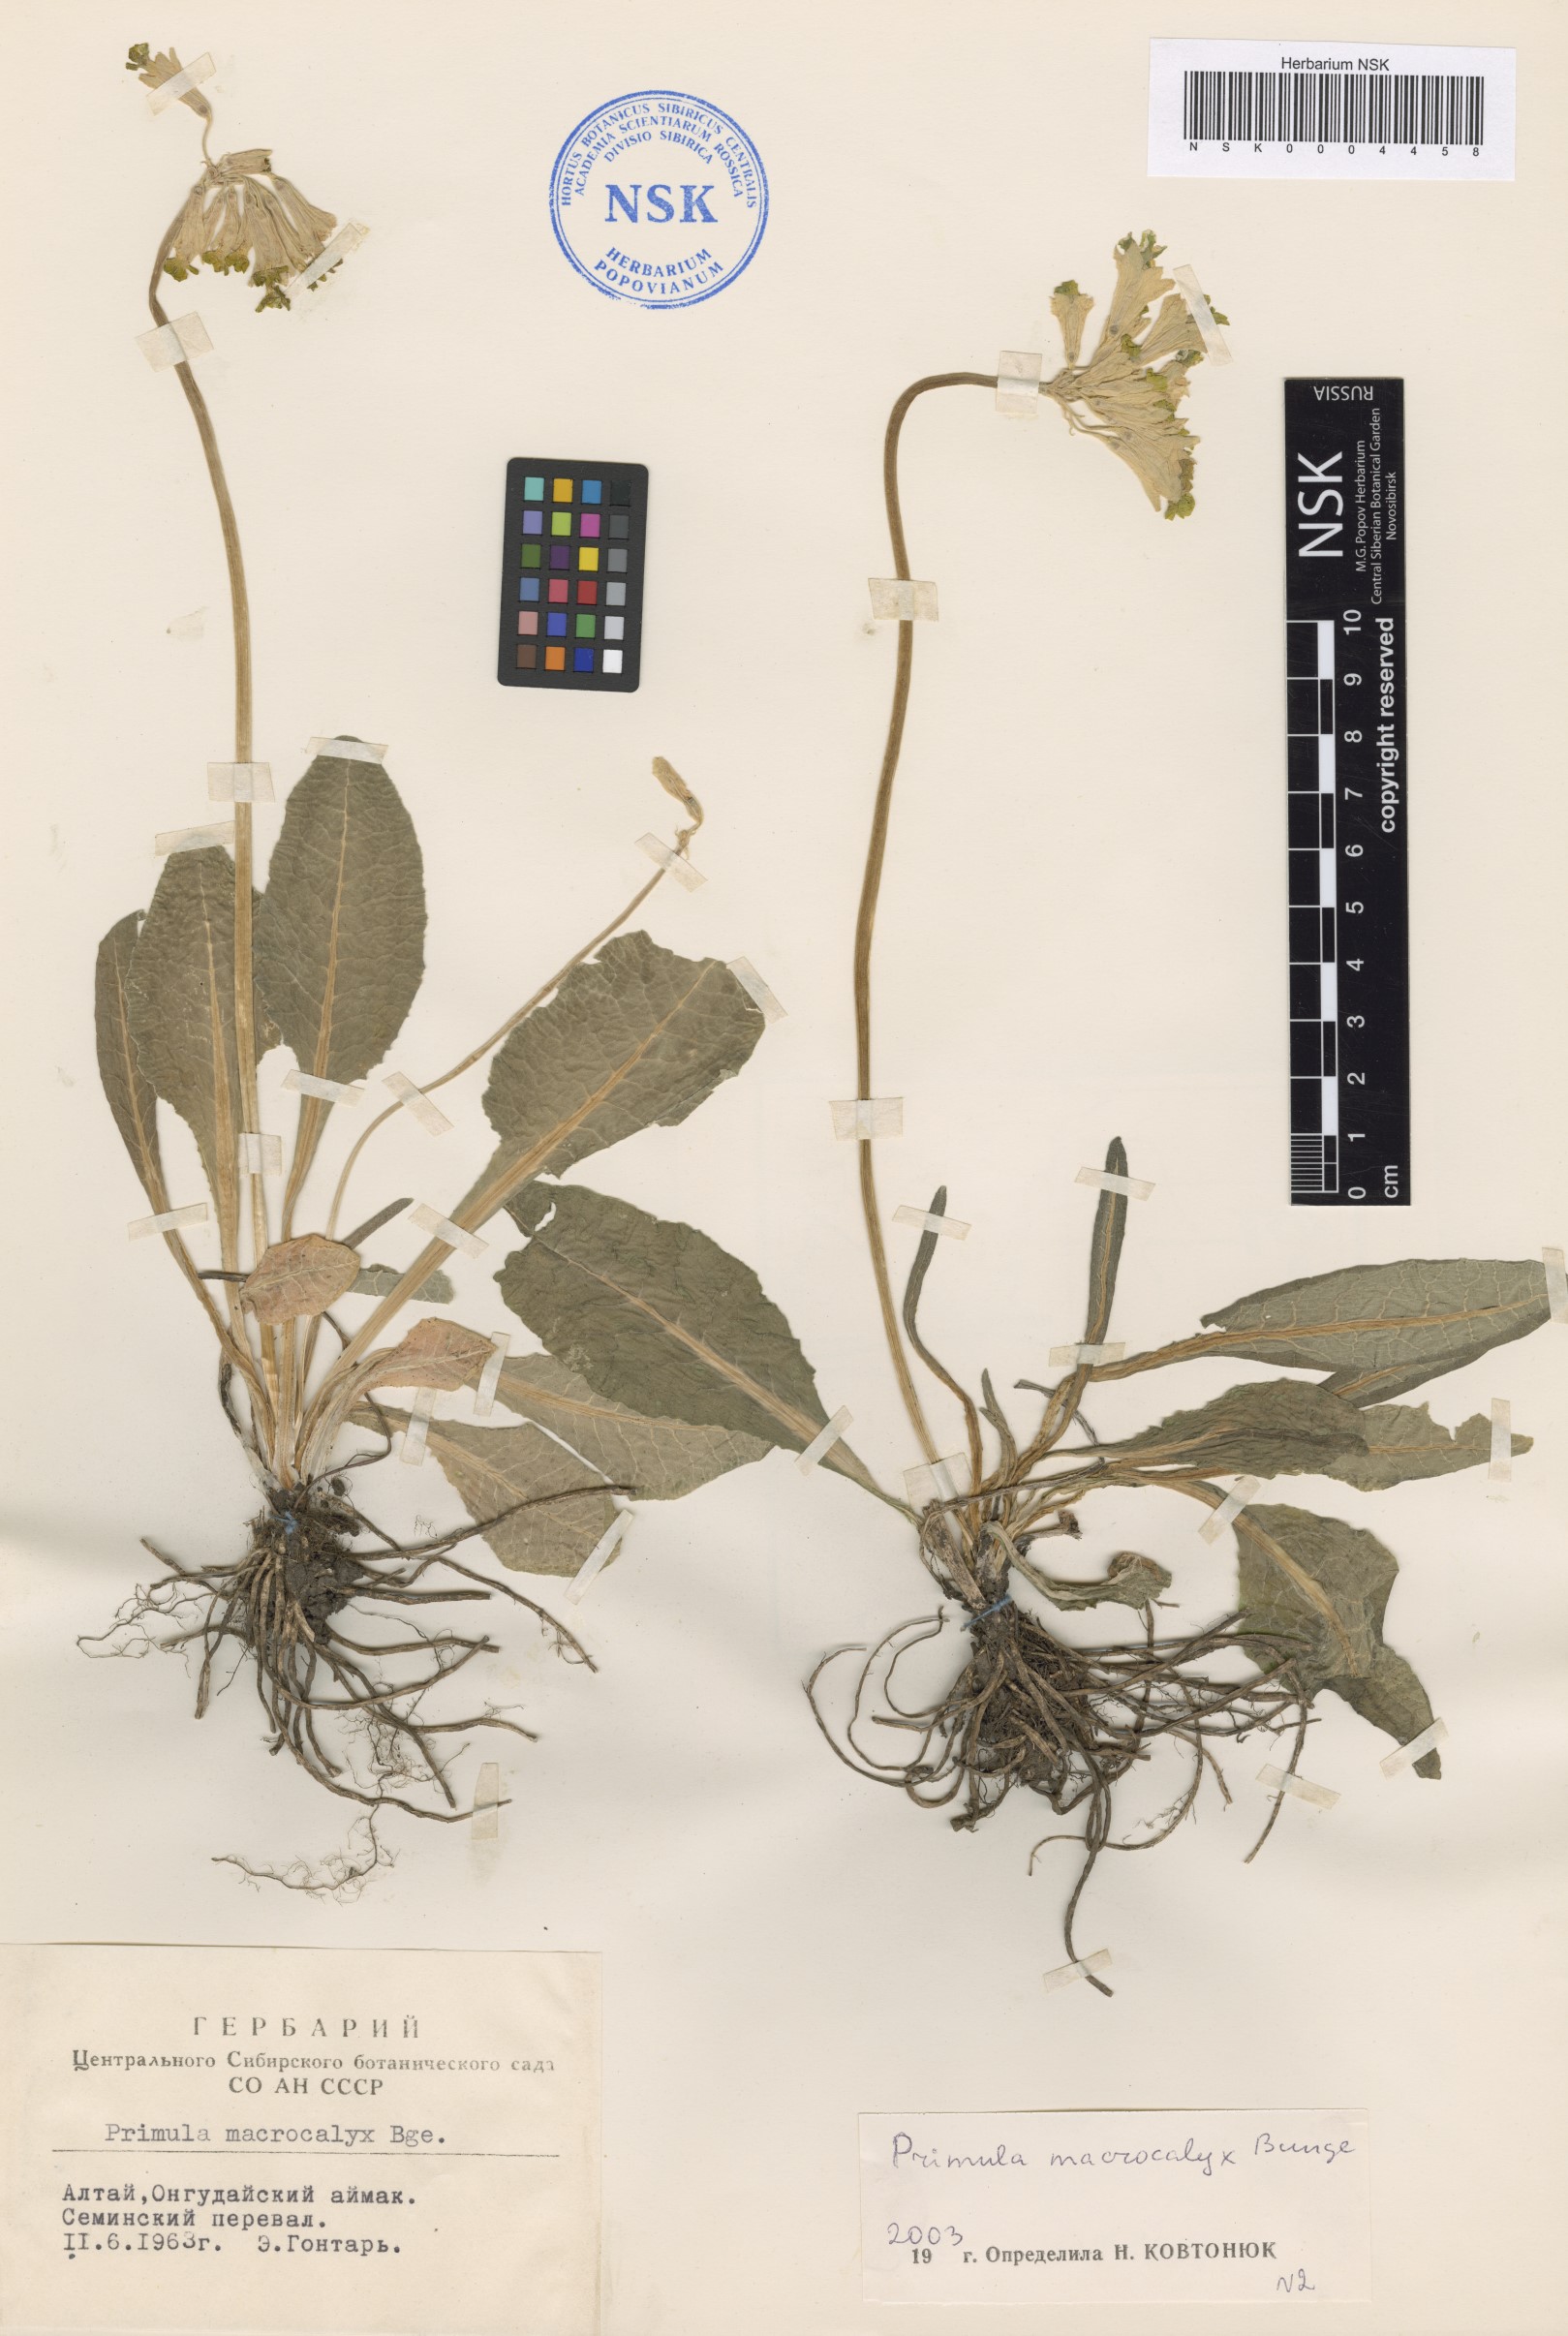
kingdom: Plantae
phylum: Tracheophyta
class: Magnoliopsida
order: Ericales
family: Primulaceae
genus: Primula
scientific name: Primula veris
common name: Cowslip
